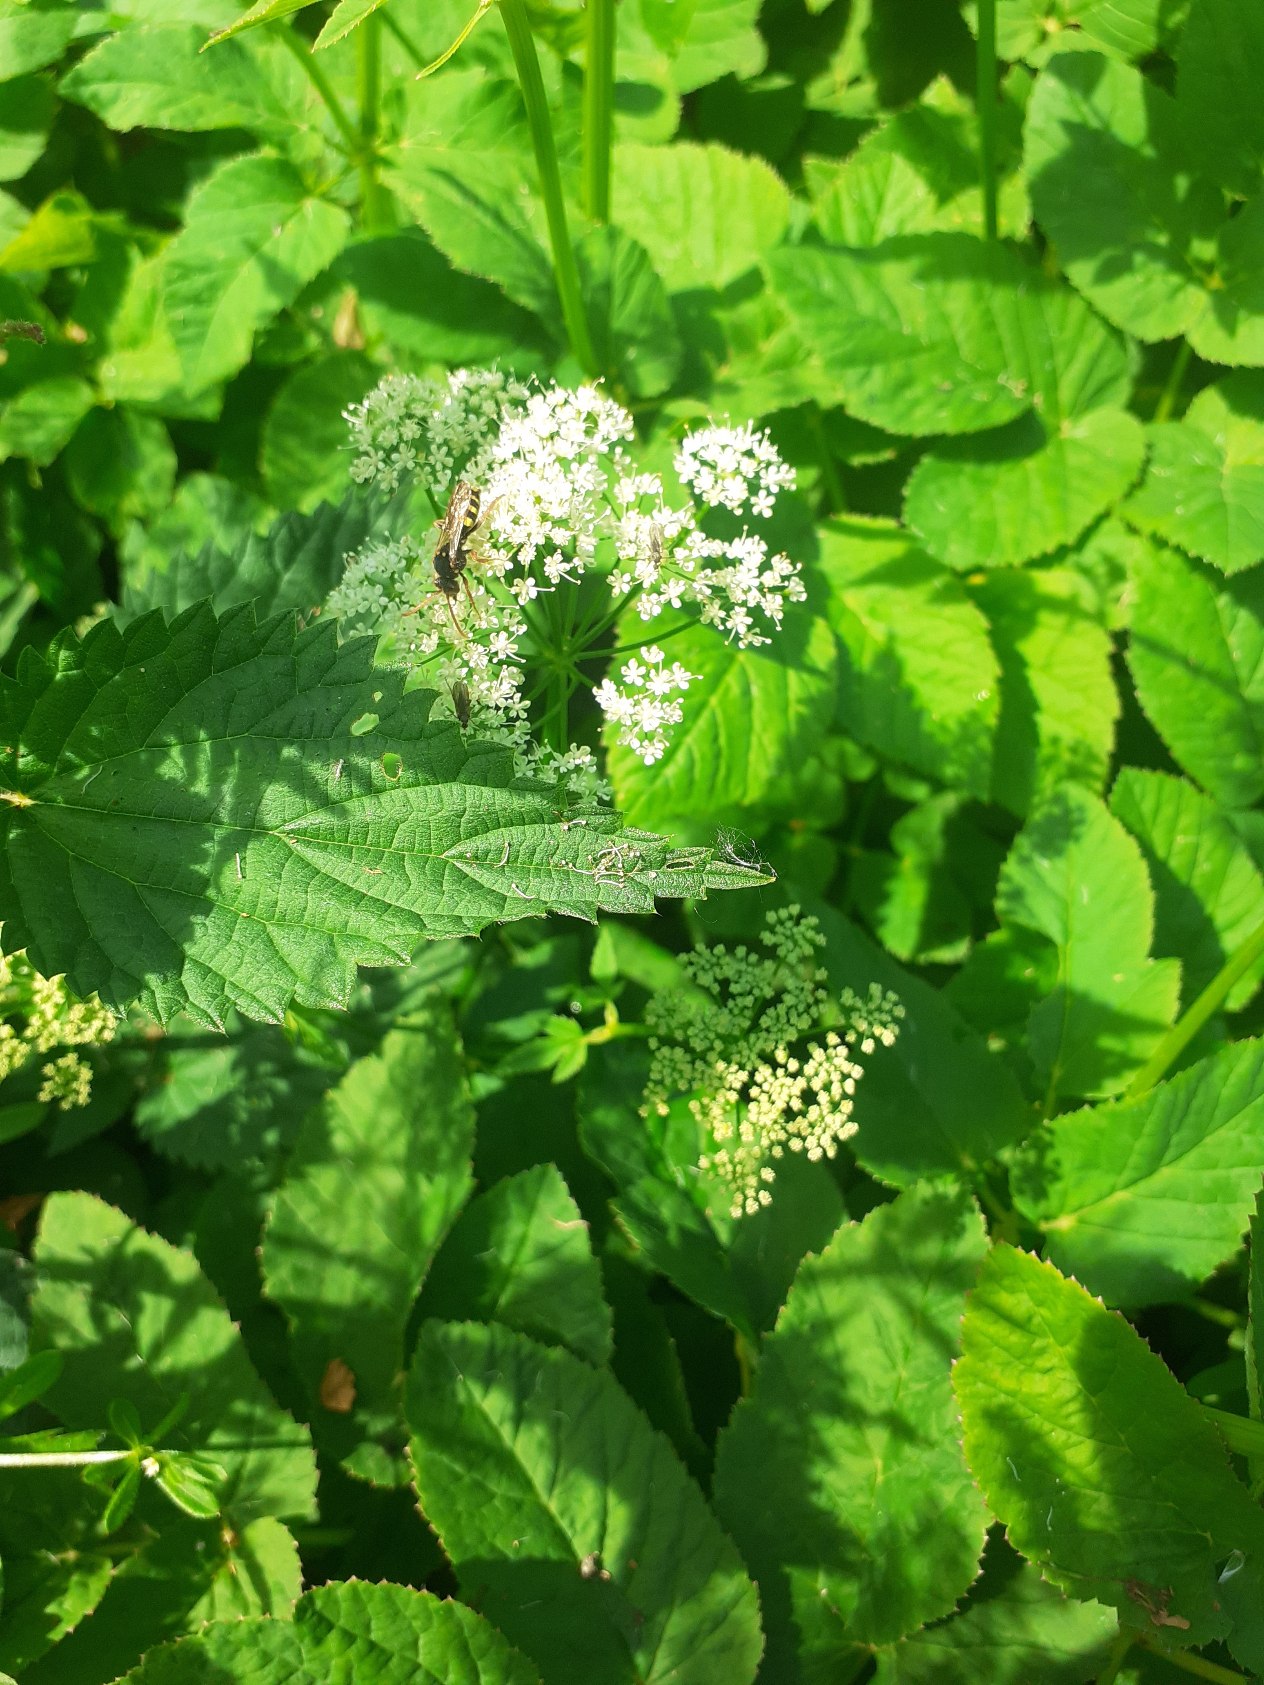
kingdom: Plantae
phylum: Tracheophyta
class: Magnoliopsida
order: Apiales
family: Apiaceae
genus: Aegopodium
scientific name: Aegopodium podagraria
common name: Skvalderkål
